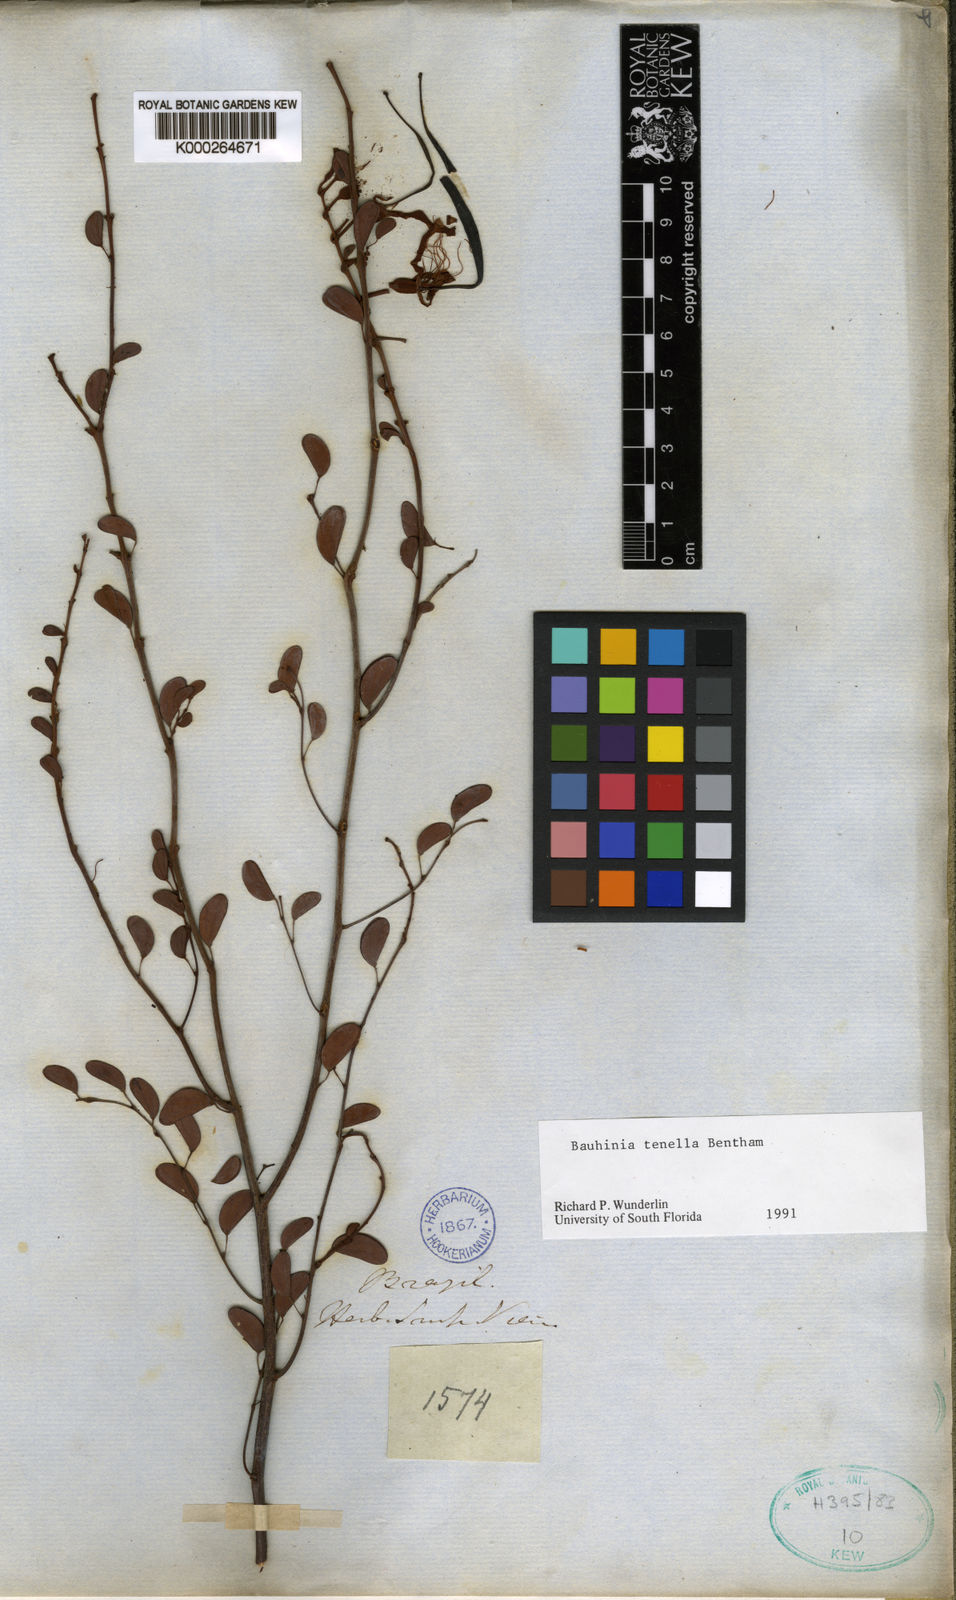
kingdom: Plantae
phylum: Tracheophyta
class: Magnoliopsida
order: Fabales
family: Fabaceae
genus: Bauhinia
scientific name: Bauhinia tenella
